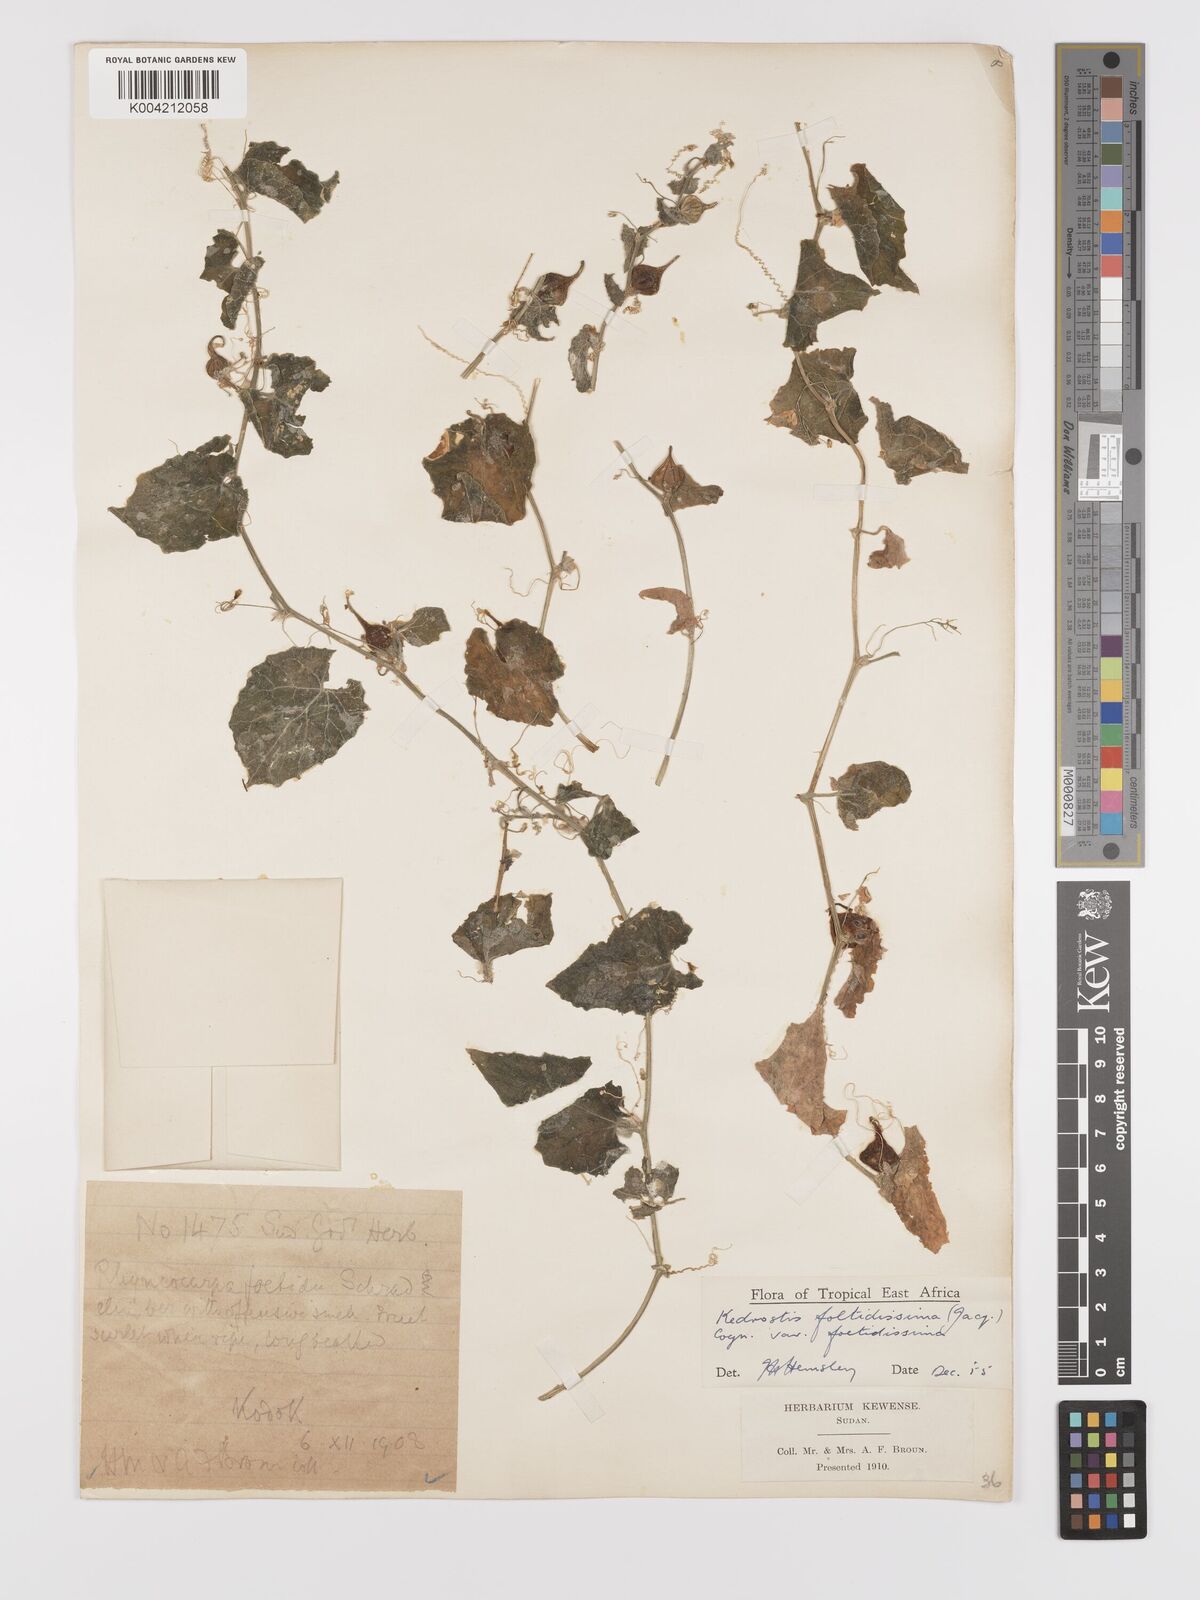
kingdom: Plantae
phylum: Tracheophyta
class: Magnoliopsida
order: Cucurbitales
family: Cucurbitaceae
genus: Kedrostis
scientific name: Kedrostis foetidissima
